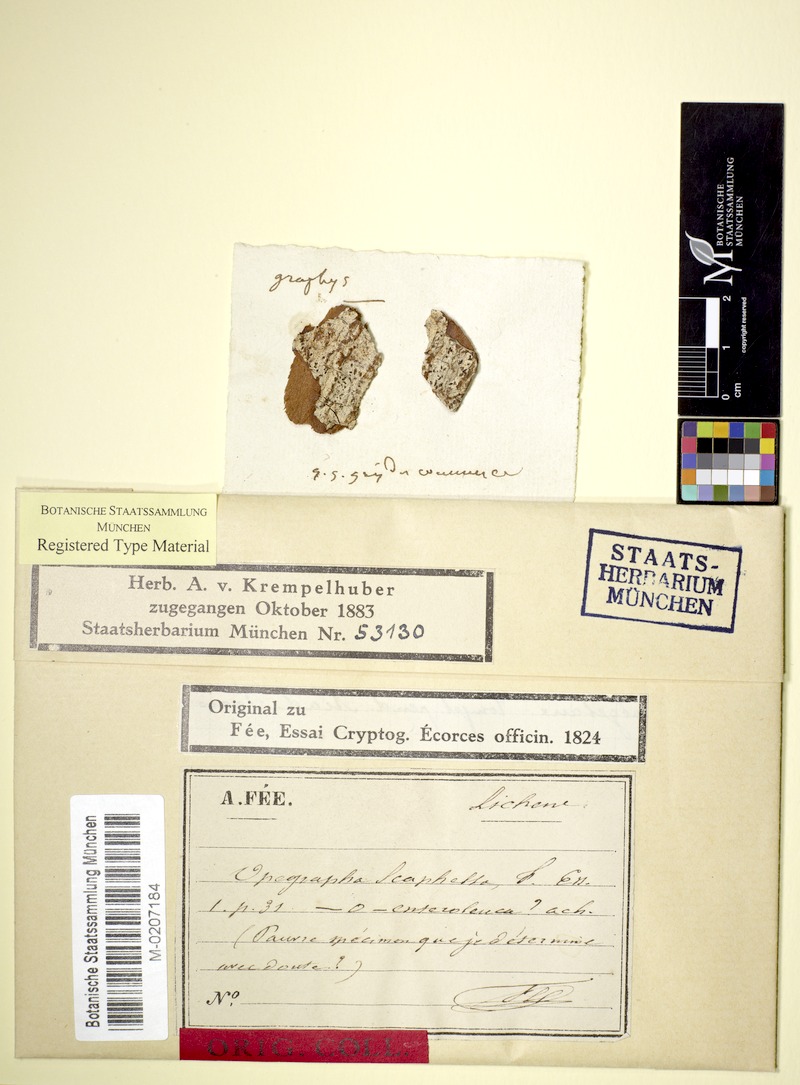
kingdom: Fungi
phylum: Ascomycota
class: Lecanoromycetes
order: Ostropales
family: Graphidaceae
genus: Allographa
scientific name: Allographa cinerea
